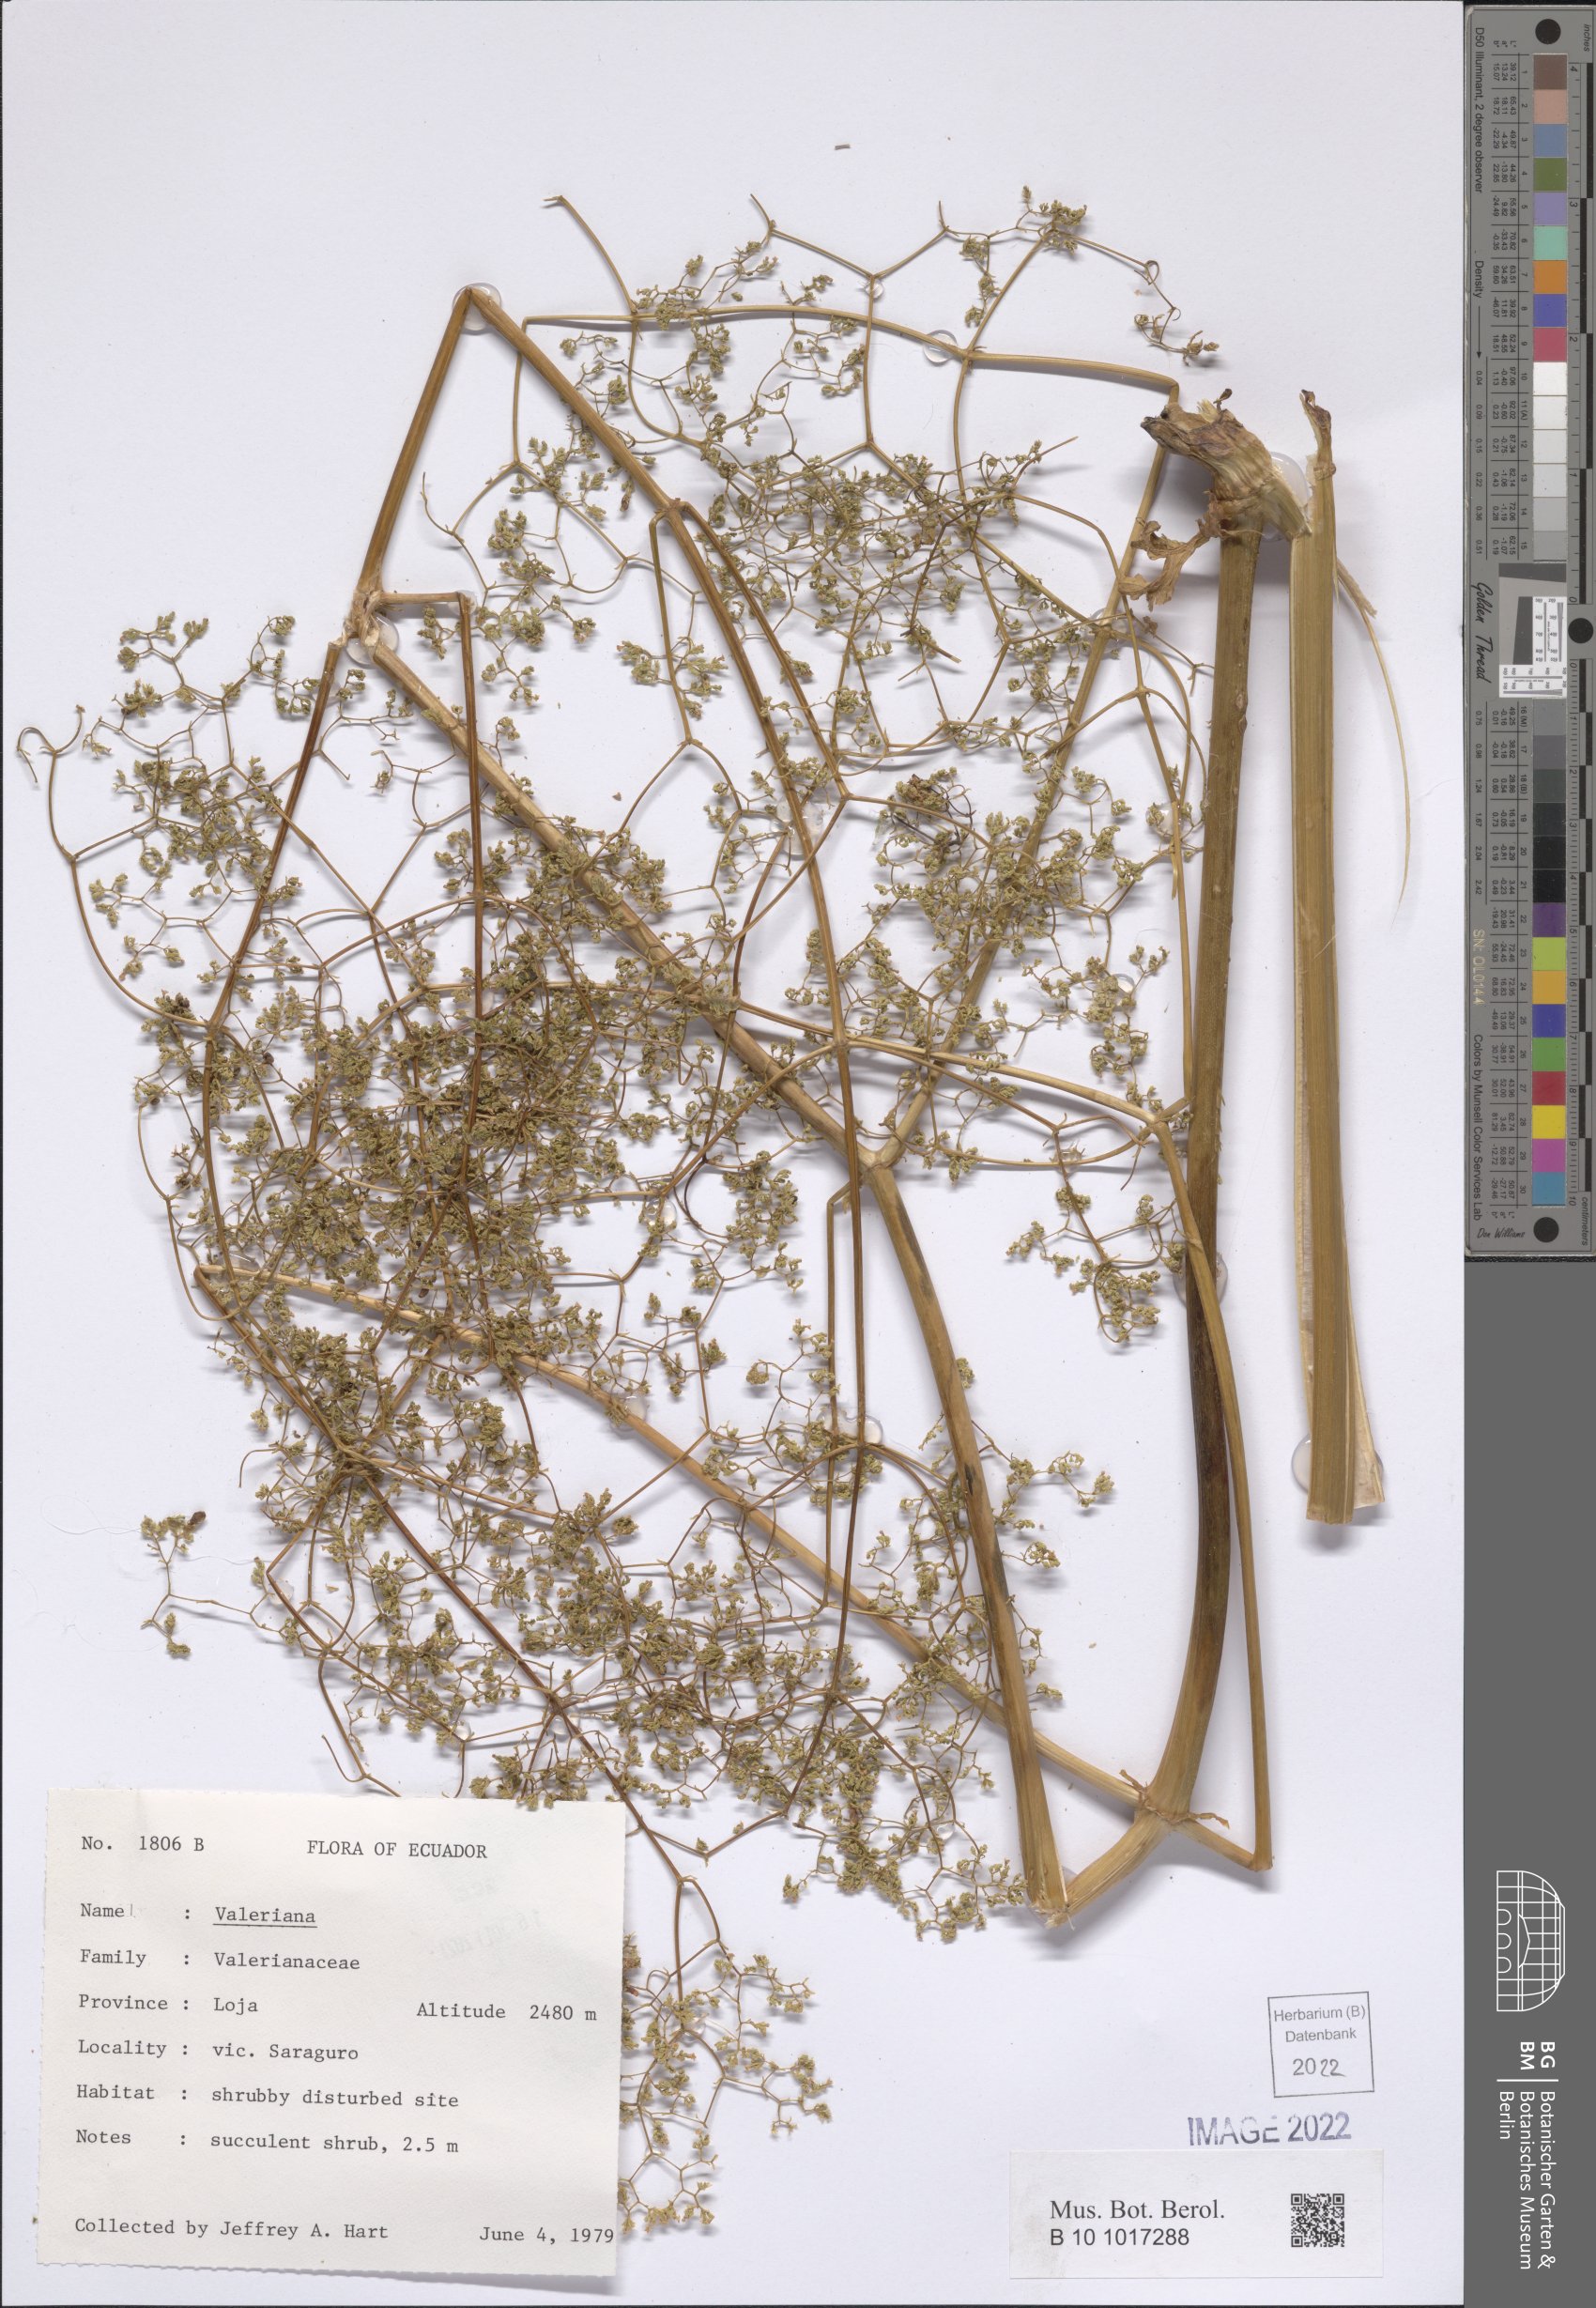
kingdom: Plantae
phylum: Tracheophyta
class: Magnoliopsida
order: Dipsacales
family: Caprifoliaceae
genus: Valeriana
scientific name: Valeriana
